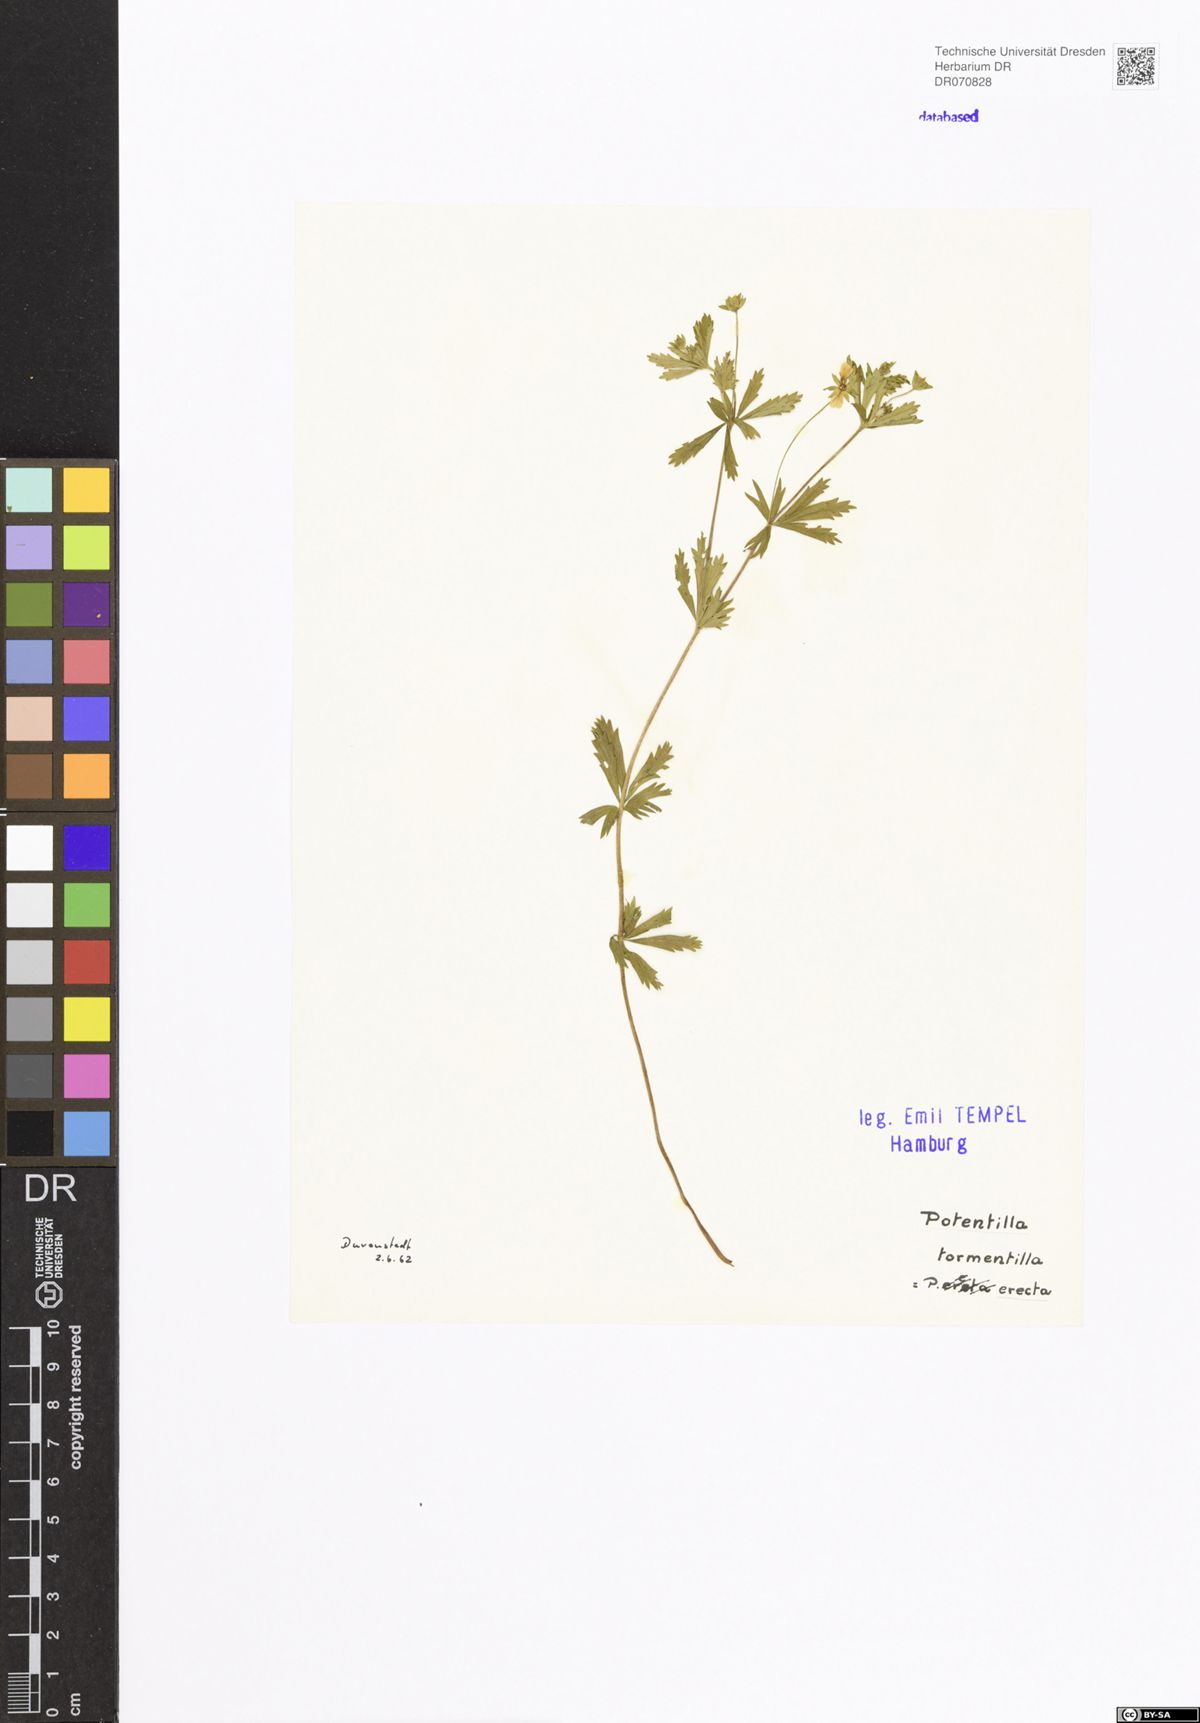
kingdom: Plantae
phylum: Tracheophyta
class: Magnoliopsida
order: Rosales
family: Rosaceae
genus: Potentilla
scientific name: Potentilla erecta
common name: Tormentil
